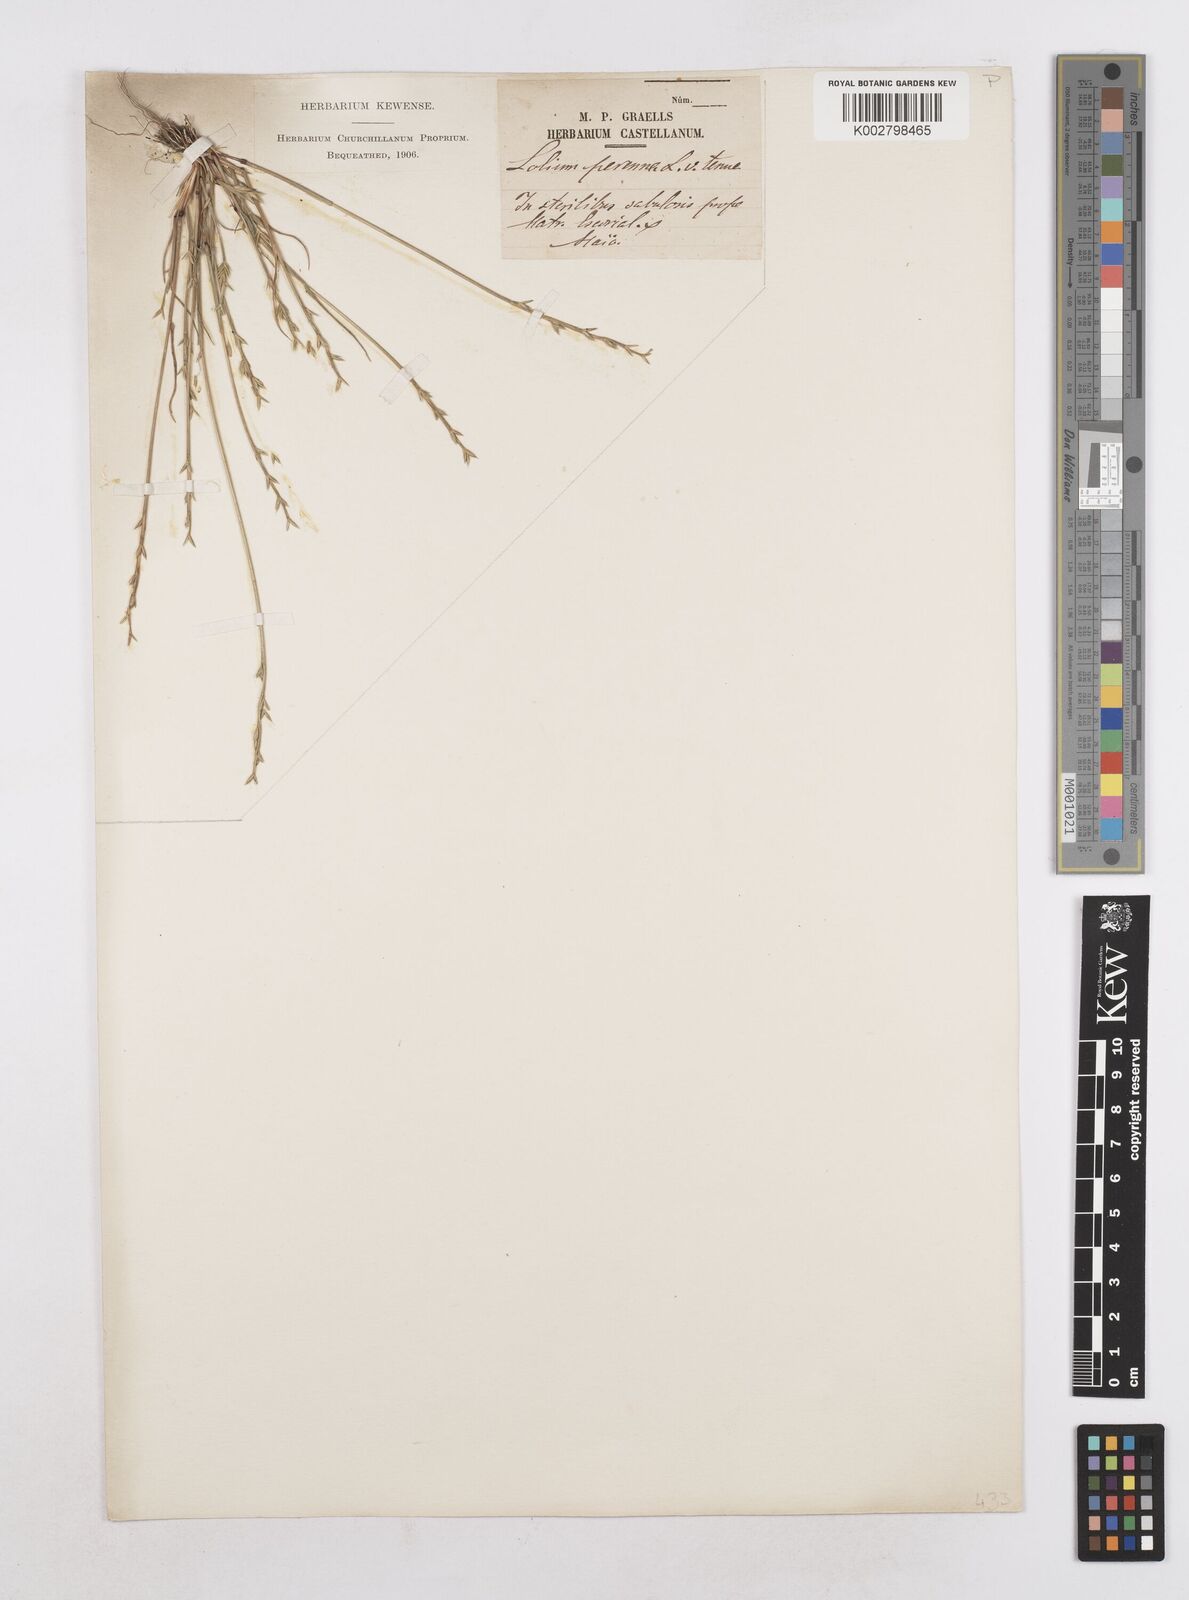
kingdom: Plantae
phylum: Tracheophyta
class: Liliopsida
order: Poales
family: Poaceae
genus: Festuca
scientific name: Festuca lachenalii
